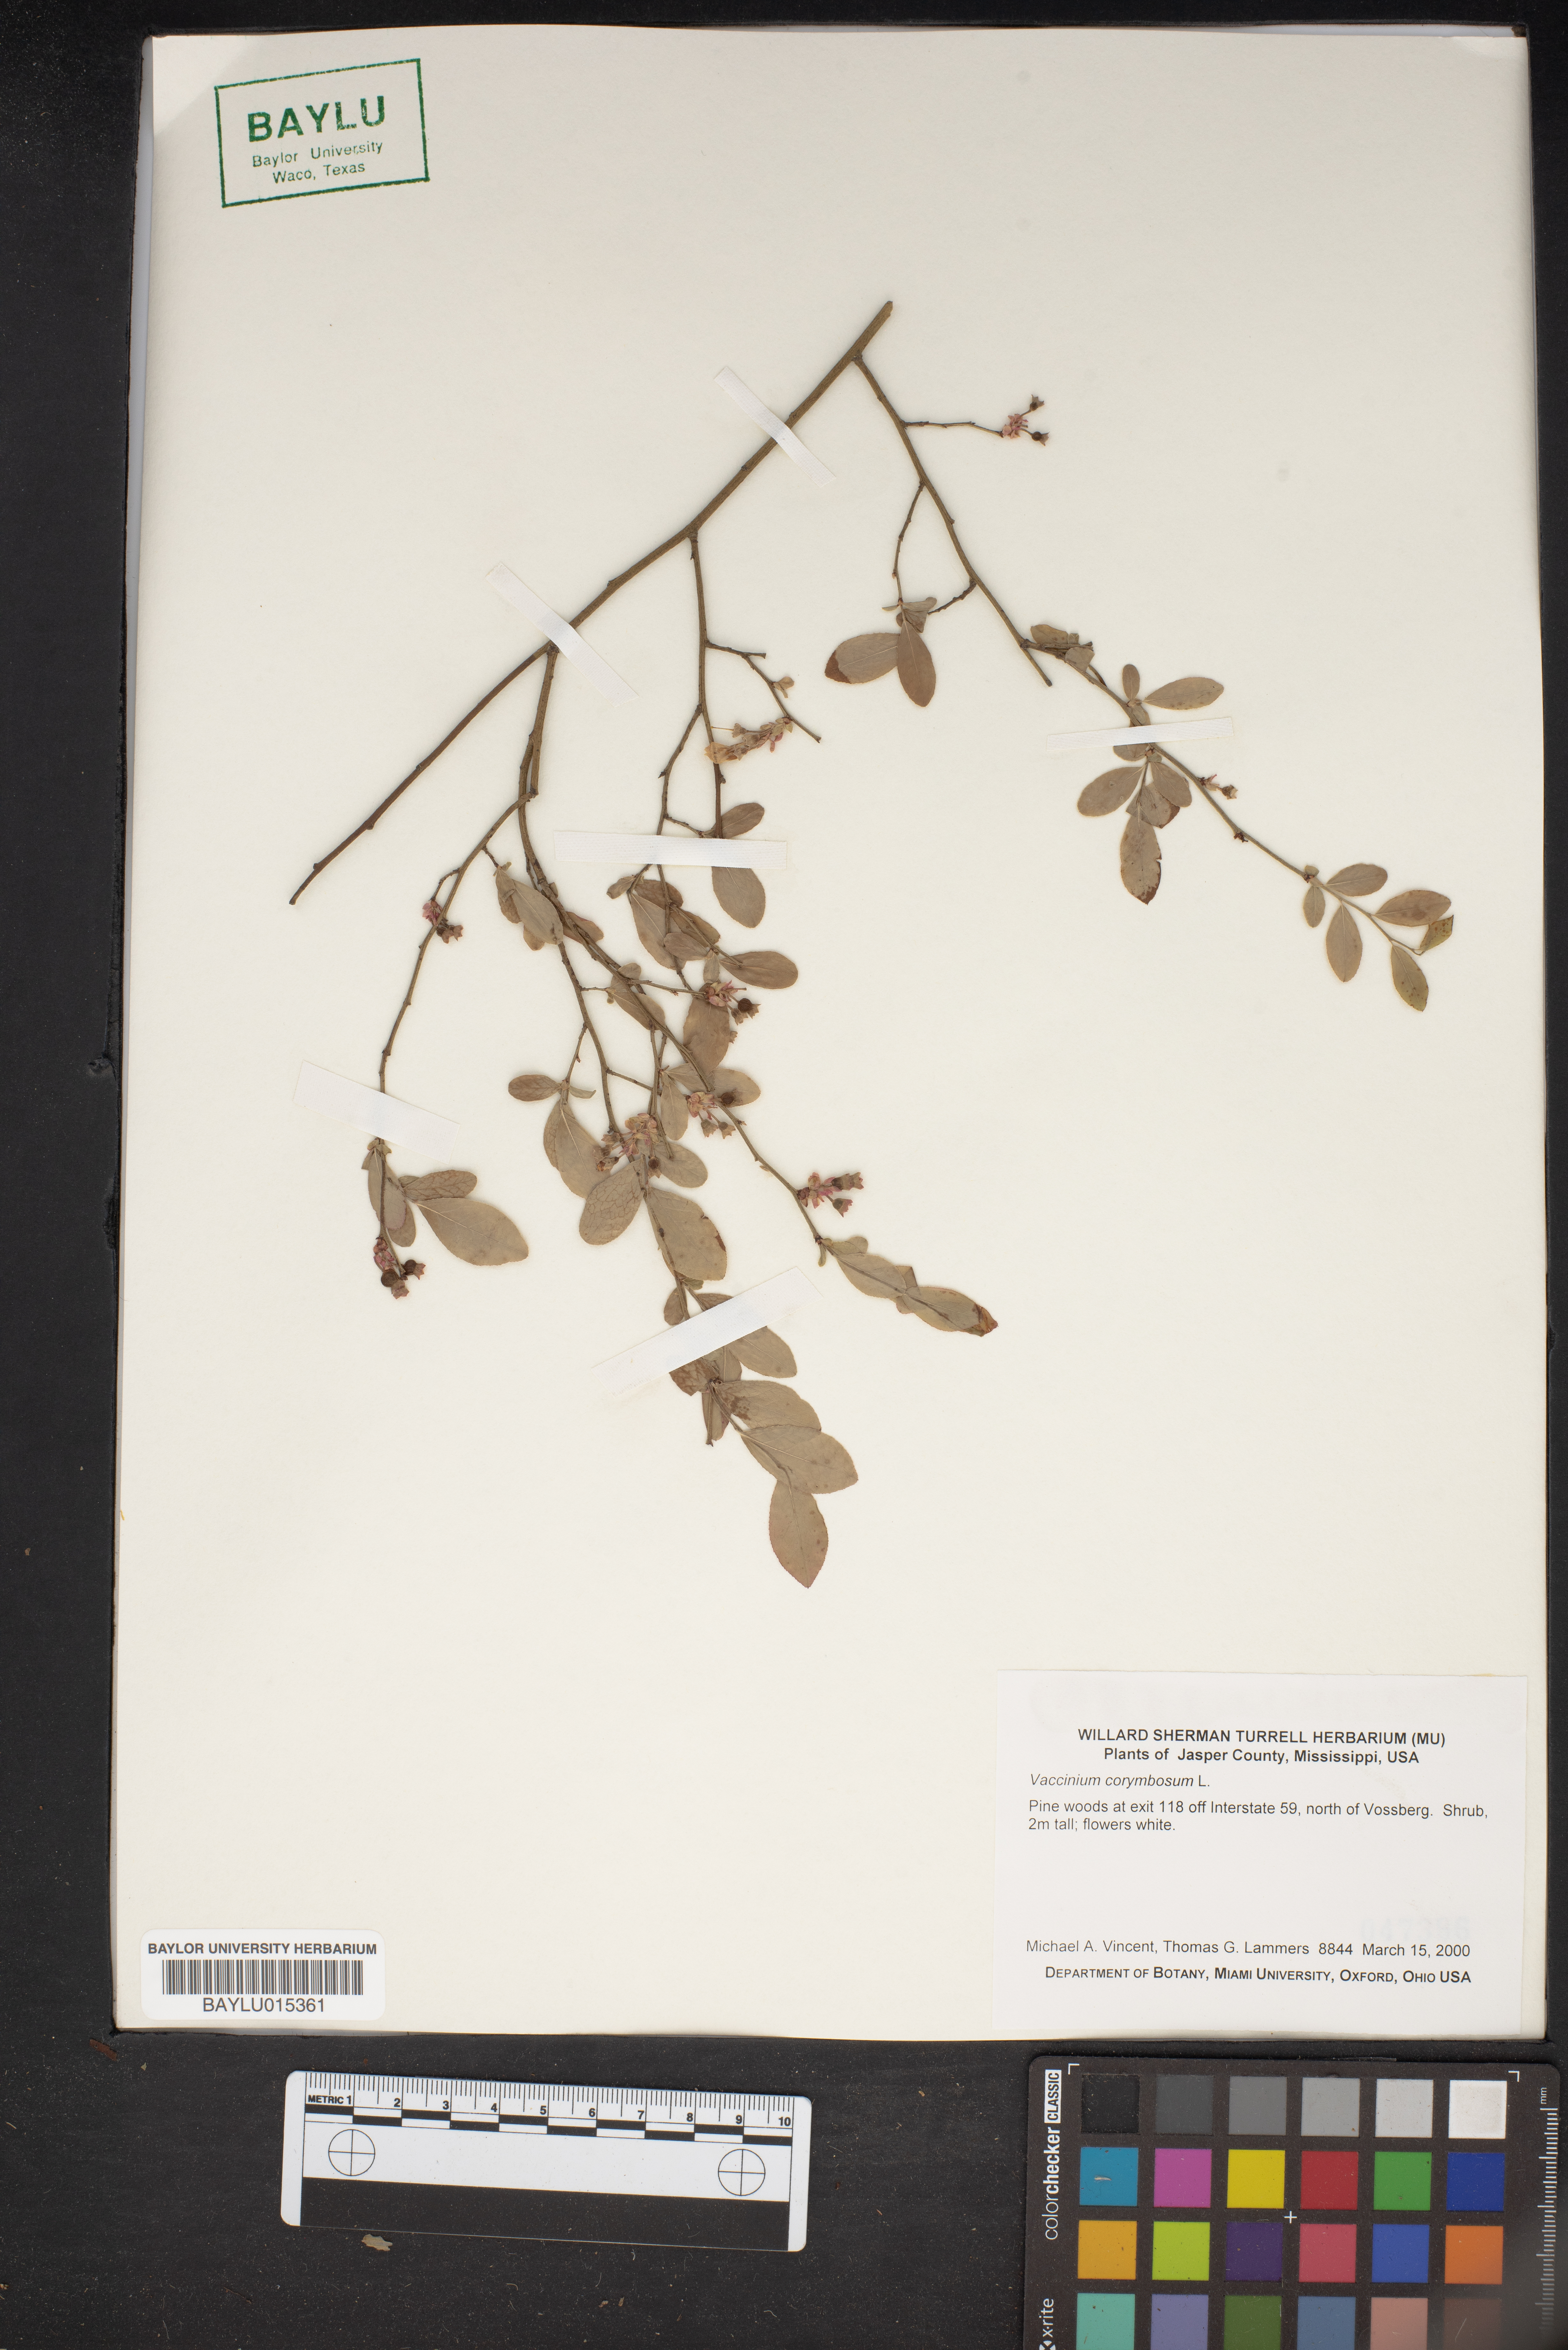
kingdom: Plantae
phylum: Tracheophyta
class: Magnoliopsida
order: Ericales
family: Ericaceae
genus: Vaccinium
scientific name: Vaccinium corymbosum
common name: Blueberry
